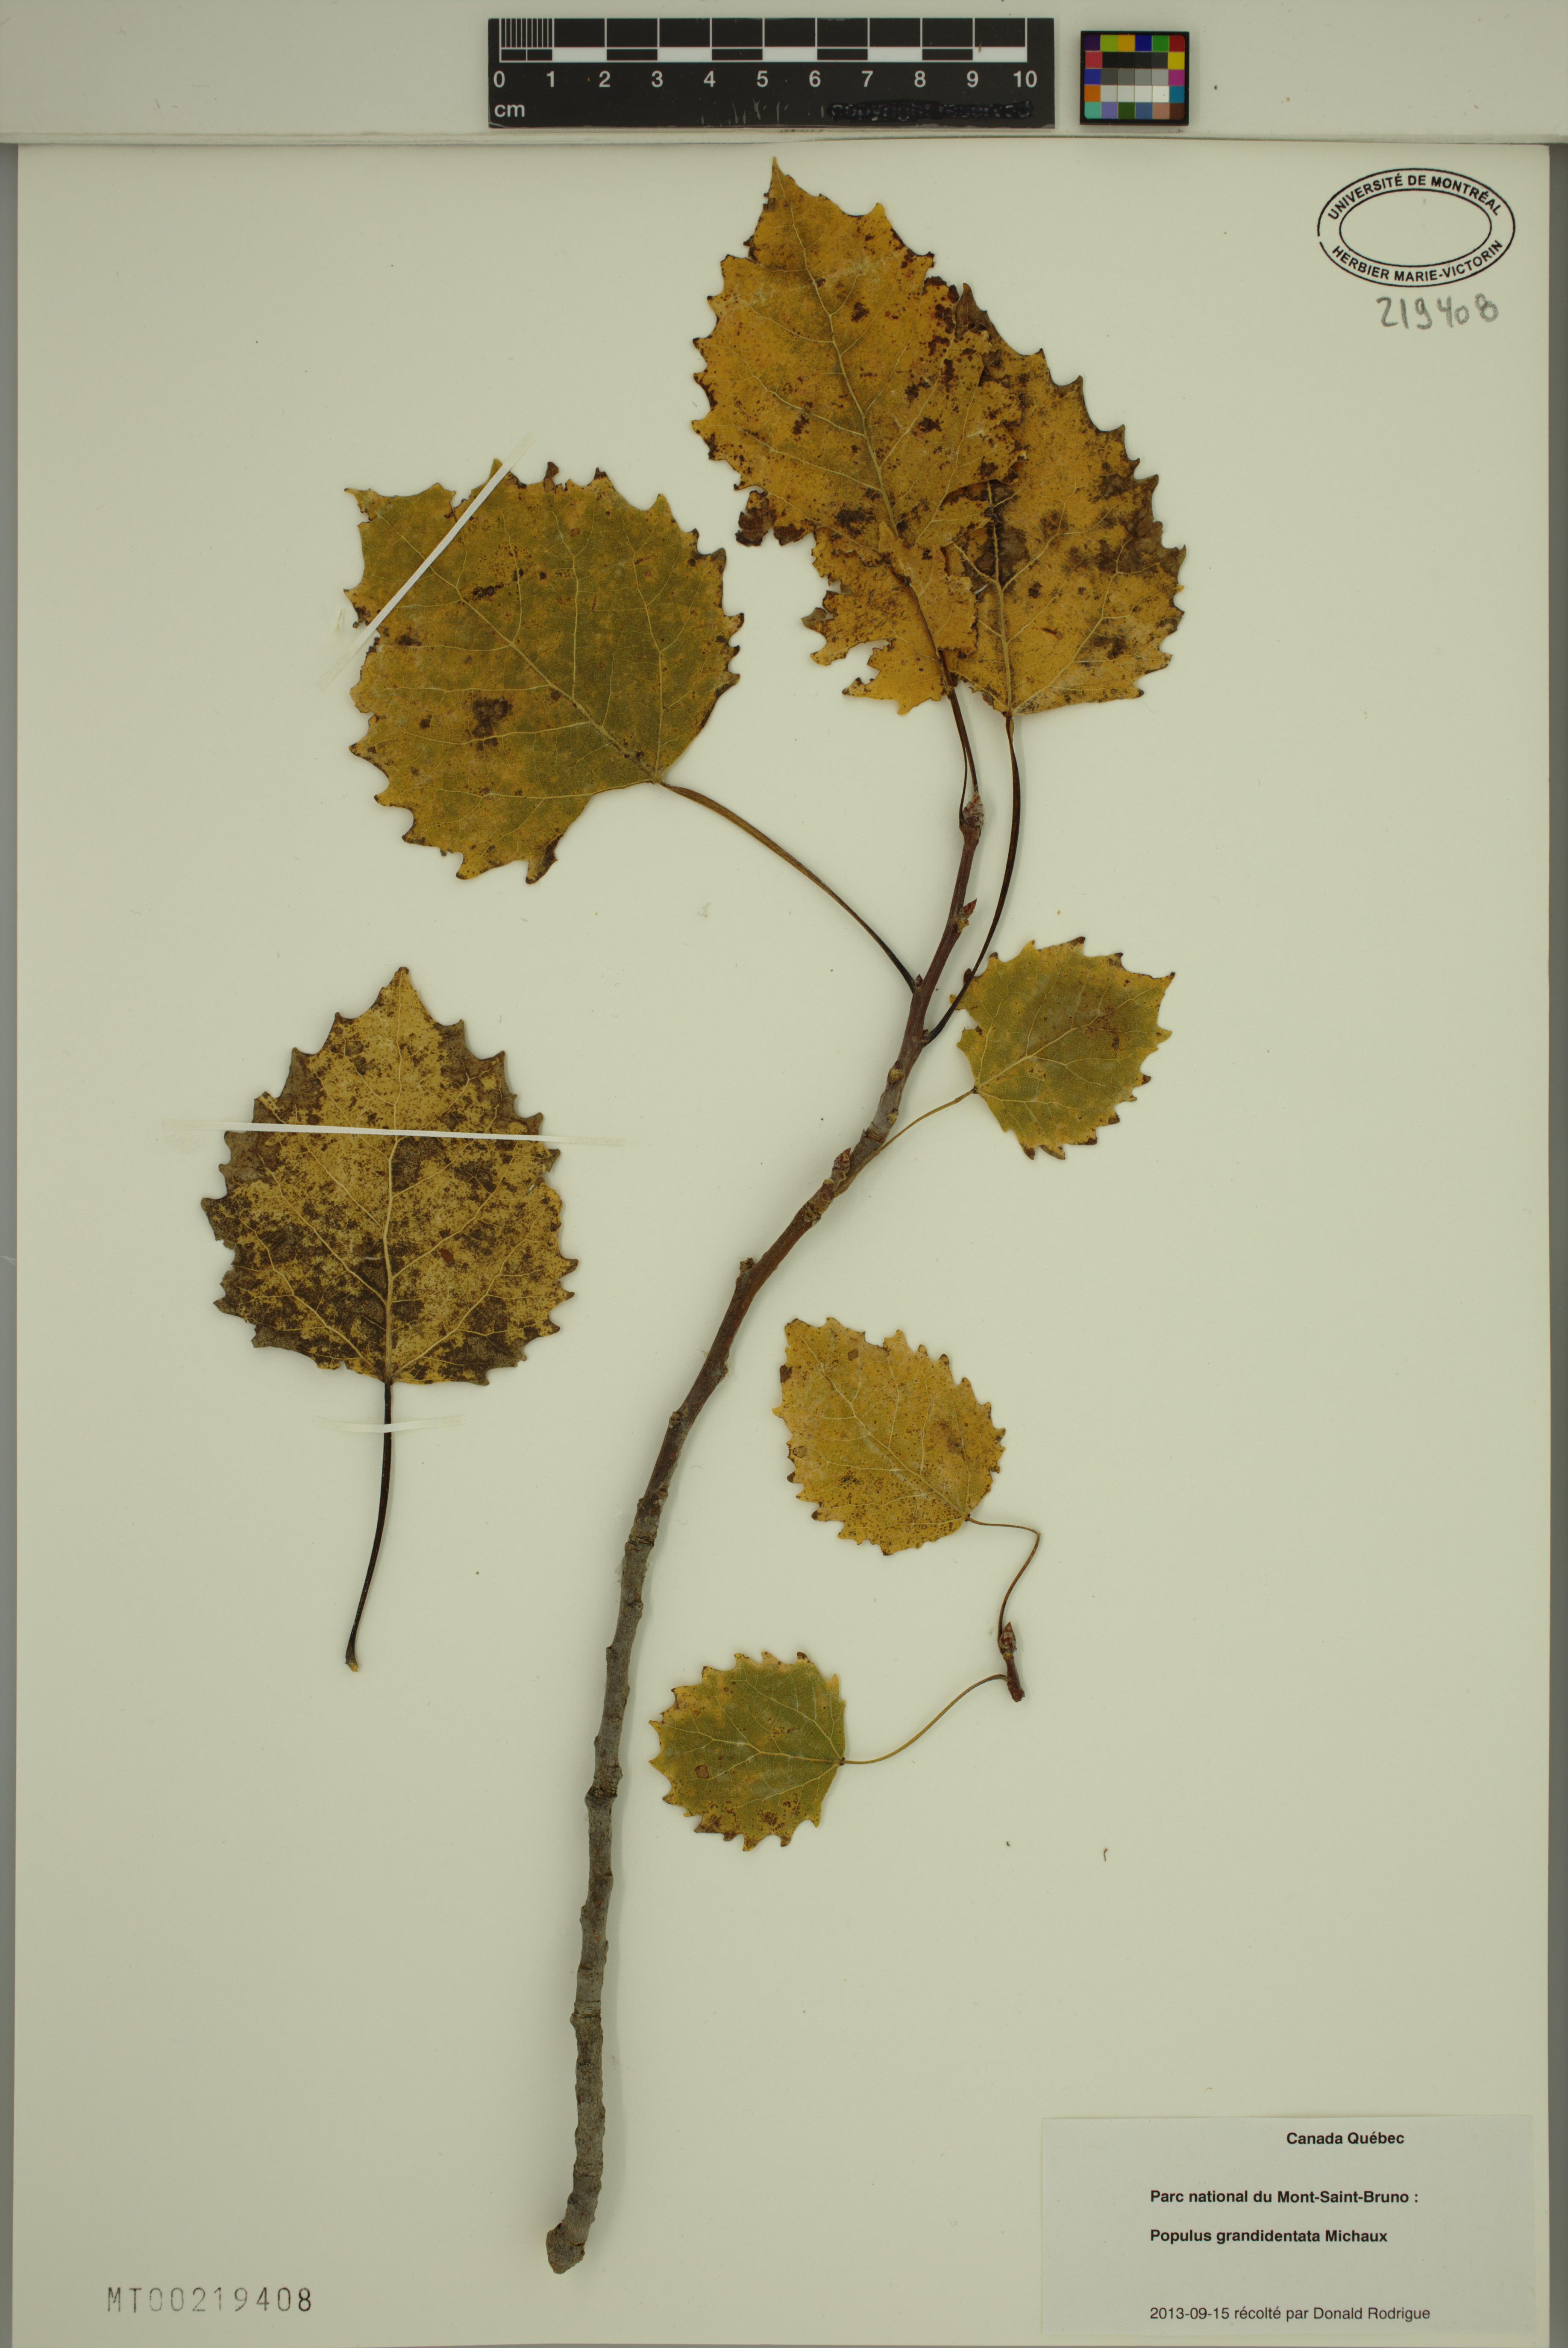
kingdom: Plantae
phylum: Tracheophyta
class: Magnoliopsida
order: Malpighiales
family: Salicaceae
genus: Populus
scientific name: Populus grandidentata
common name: Bigtooth aspen
